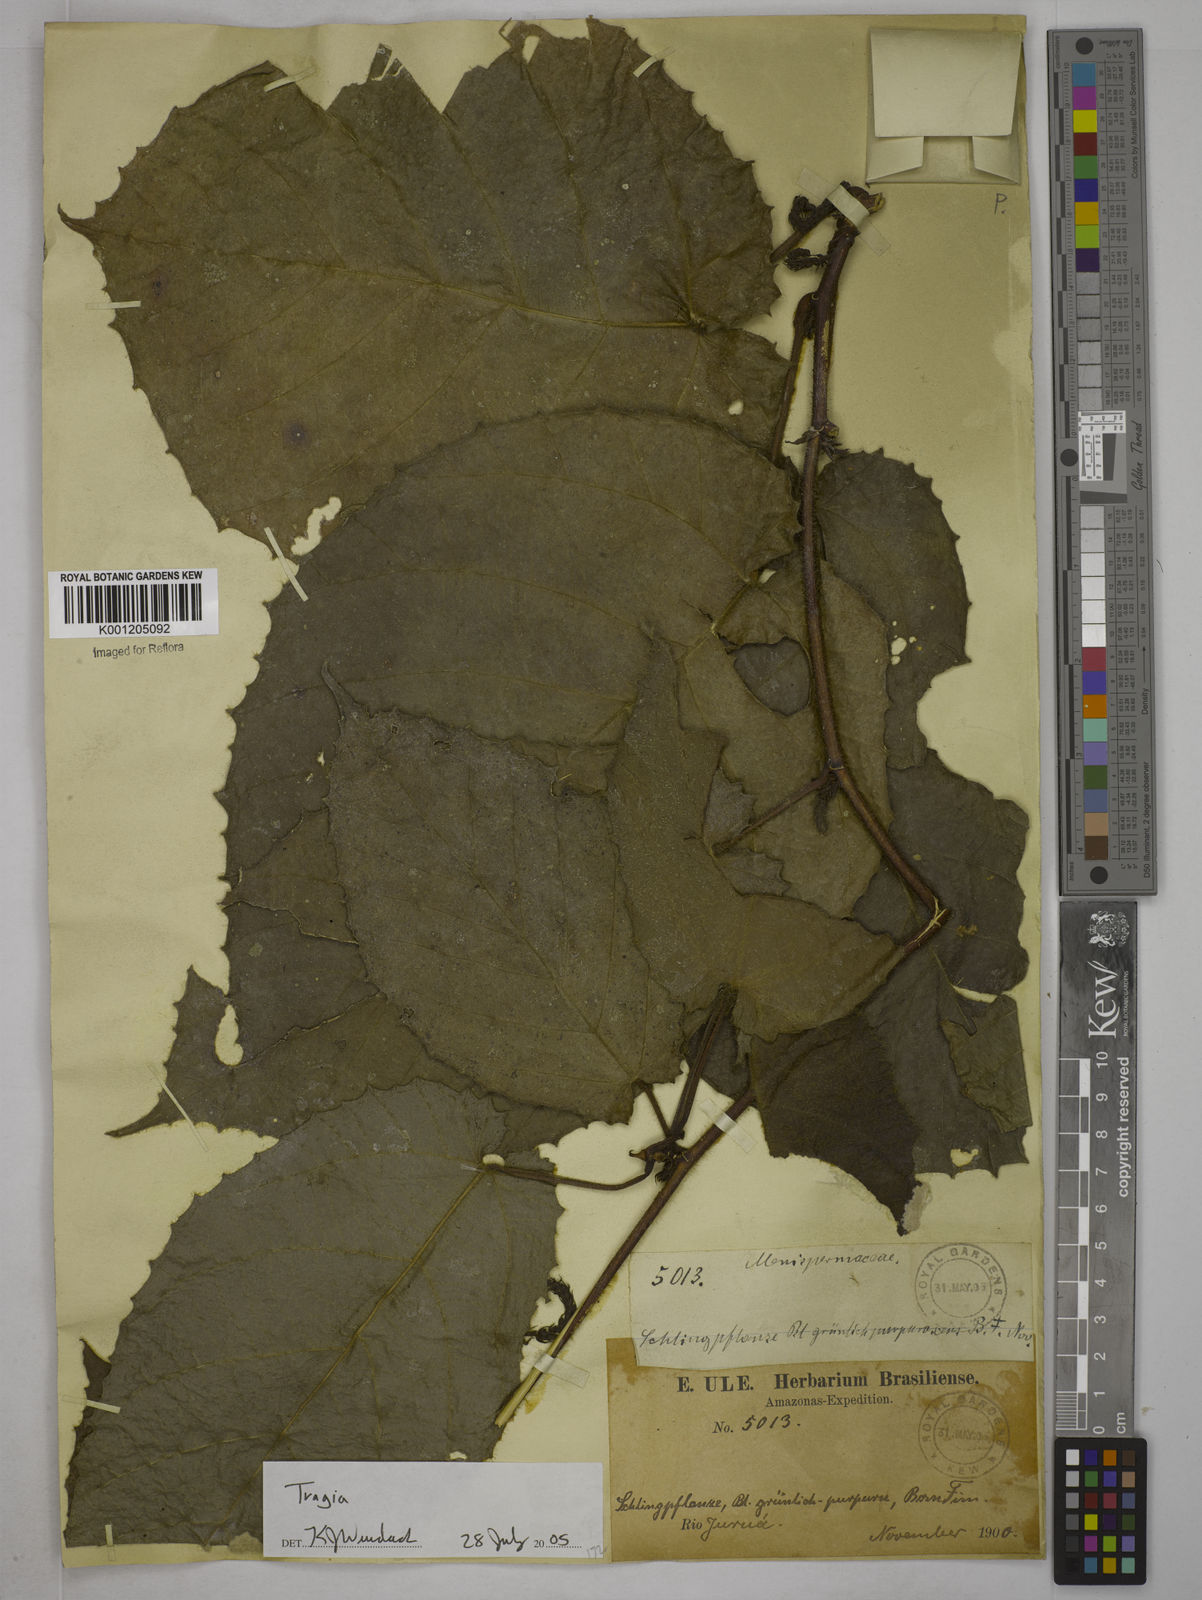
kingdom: Plantae
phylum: Tracheophyta
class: Magnoliopsida
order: Malpighiales
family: Euphorbiaceae
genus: Tragia
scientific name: Tragia
